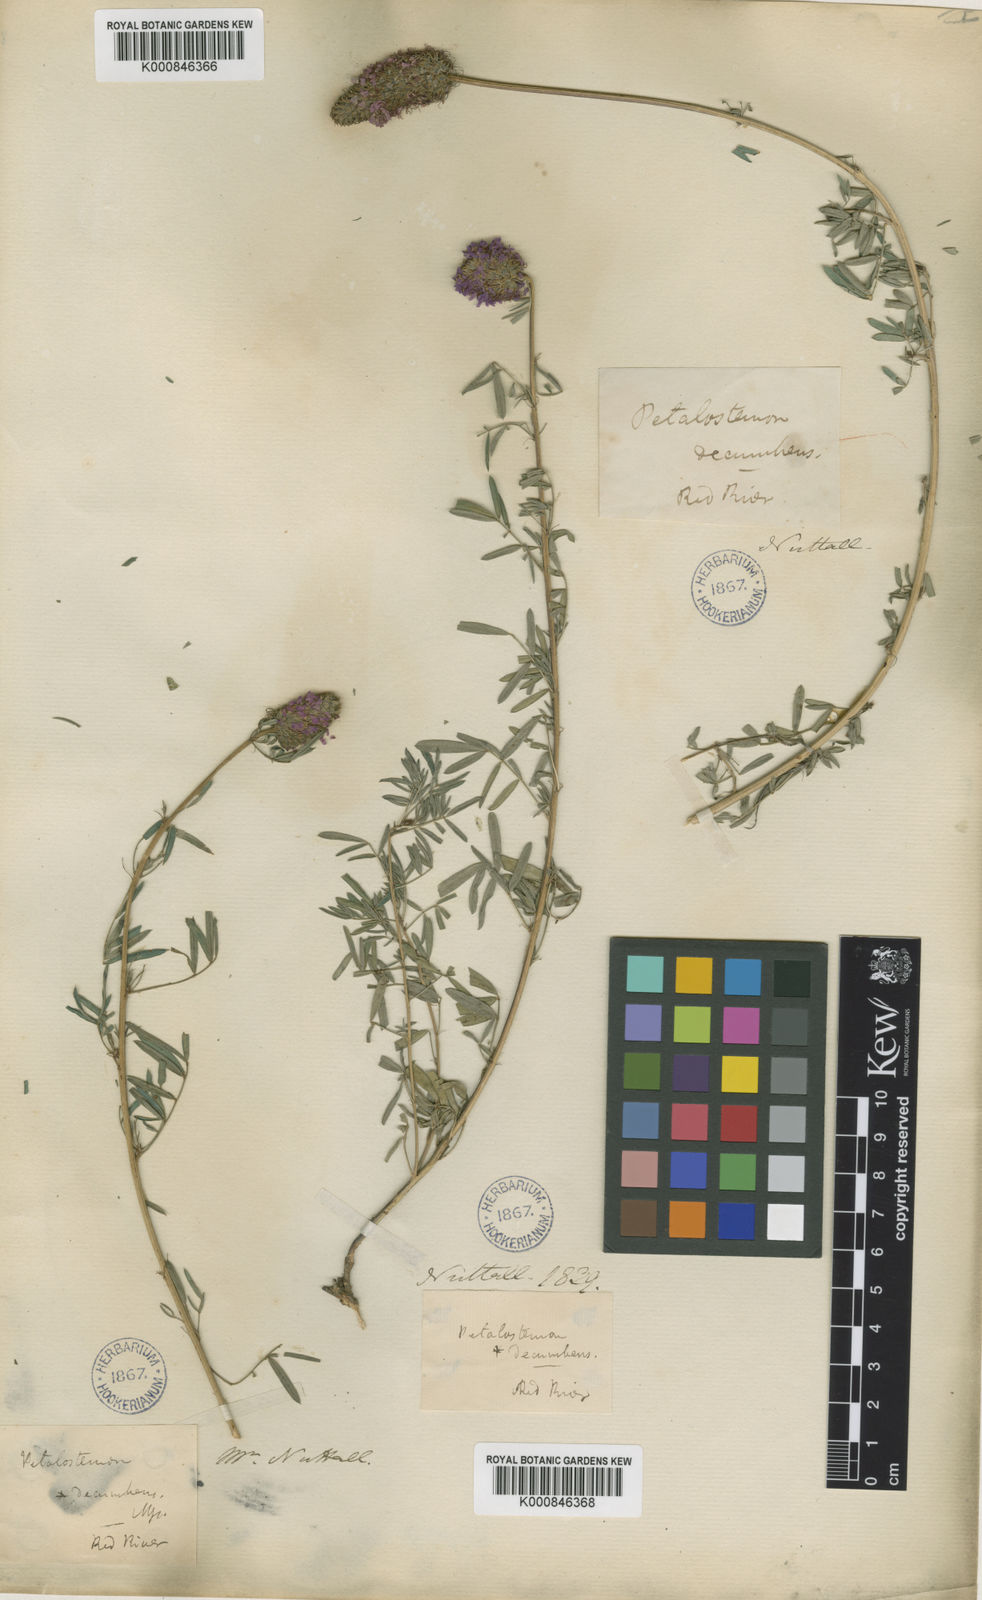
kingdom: Plantae
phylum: Tracheophyta
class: Magnoliopsida
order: Fabales
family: Fabaceae
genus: Dalea
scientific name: Dalea compacta
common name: Compact prairie-clover
